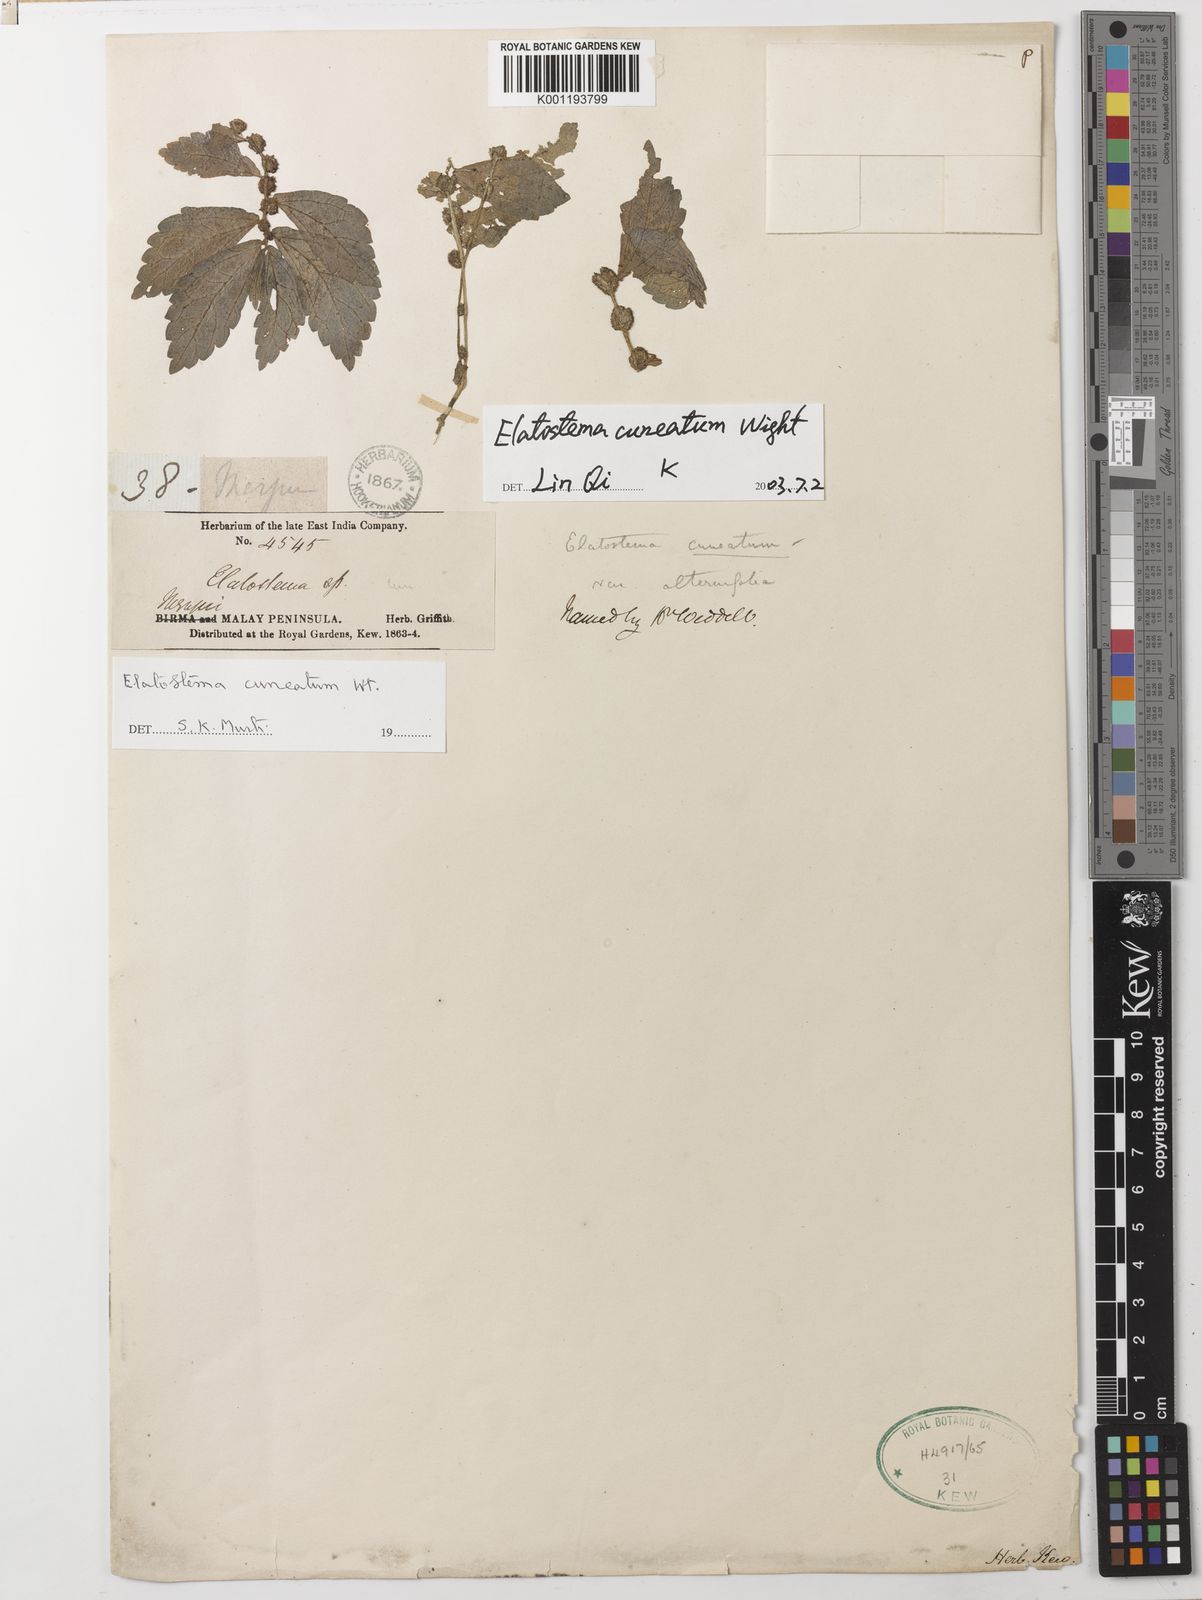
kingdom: Plantae
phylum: Tracheophyta
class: Magnoliopsida
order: Rosales
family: Urticaceae
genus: Elatostema
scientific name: Elatostema cuneatum
